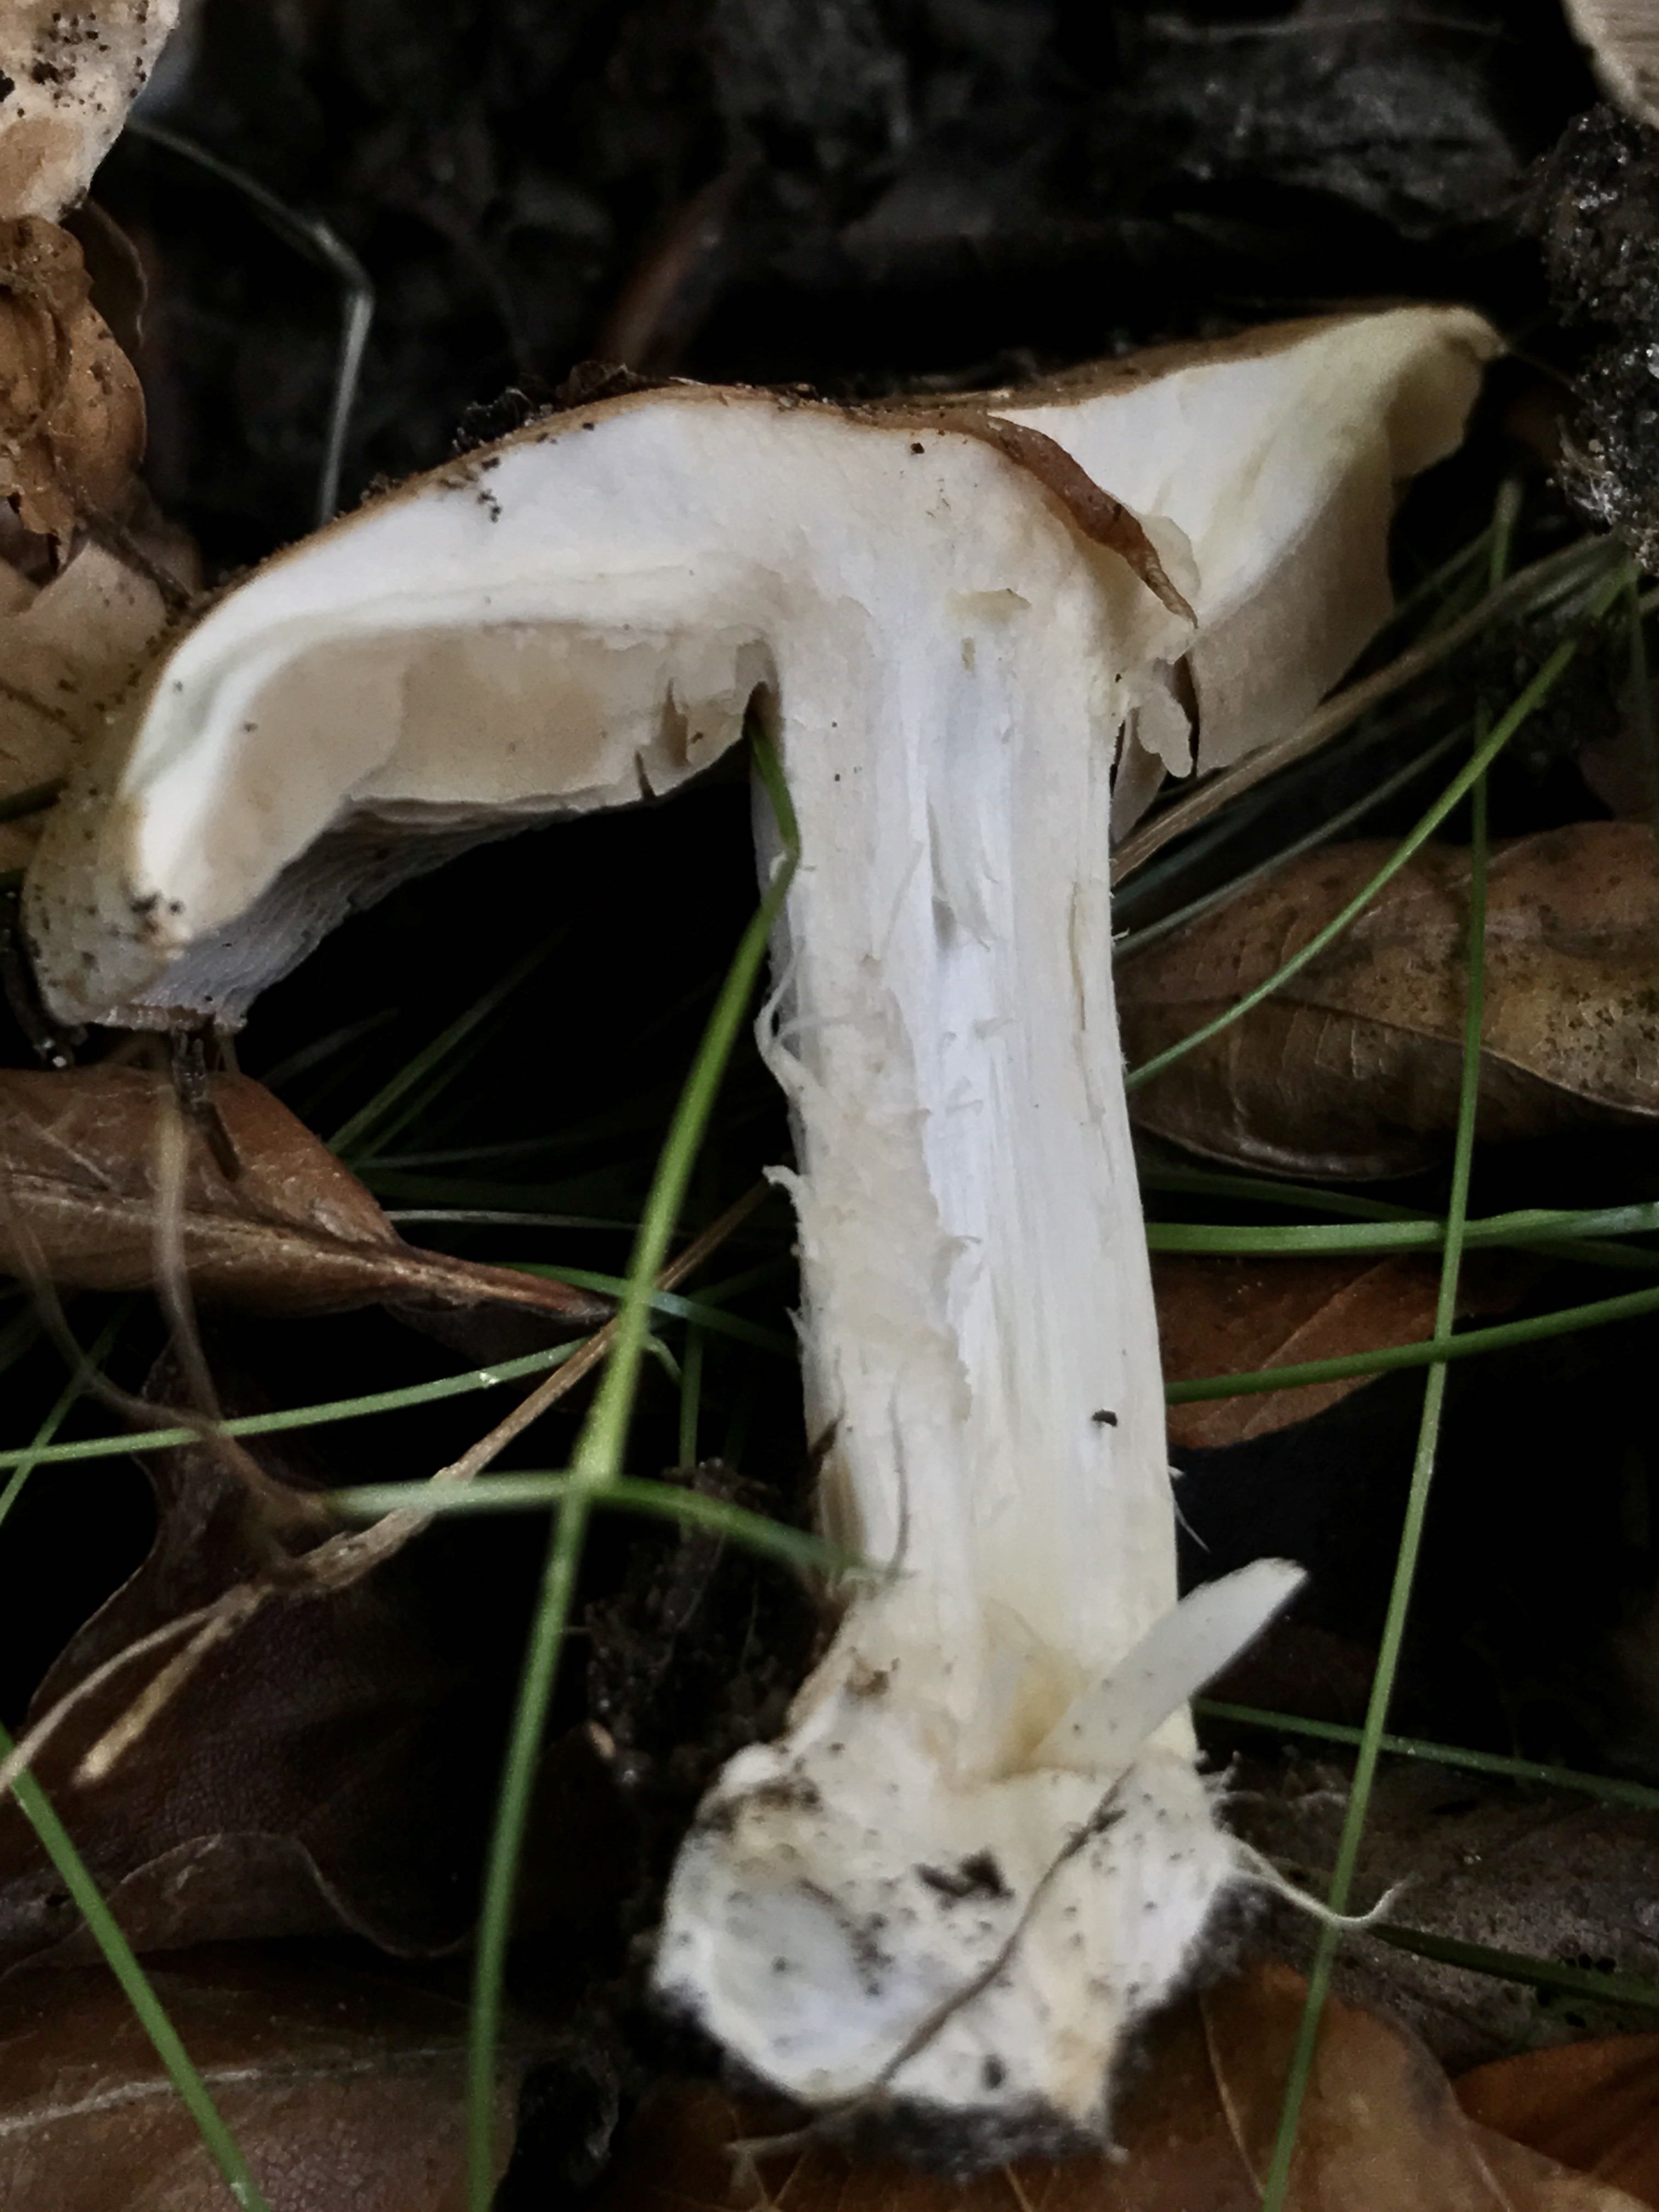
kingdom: Fungi
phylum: Basidiomycota
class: Agaricomycetes
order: Agaricales
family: Hymenogastraceae
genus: Hebeloma
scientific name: Hebeloma sinapizans
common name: ræddike-tåreblad
